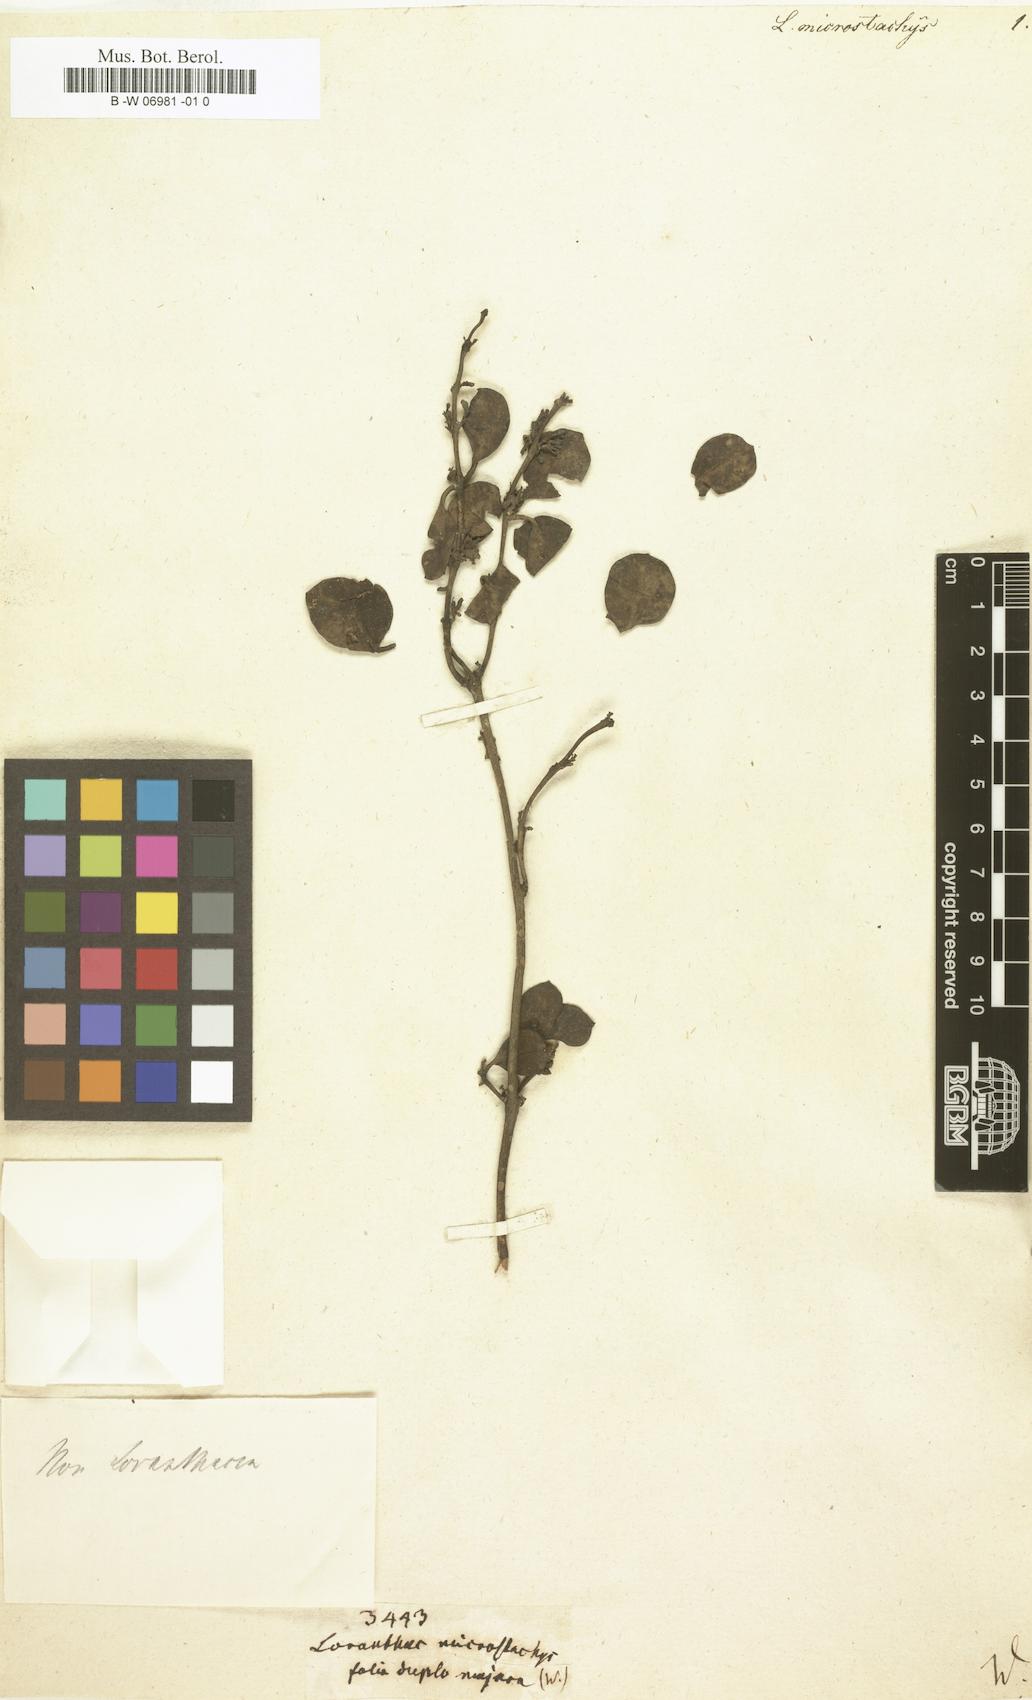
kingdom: Plantae
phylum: Tracheophyta
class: Magnoliopsida
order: Santalales
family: Loranthaceae
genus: Loranthus
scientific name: Loranthus microstachys
